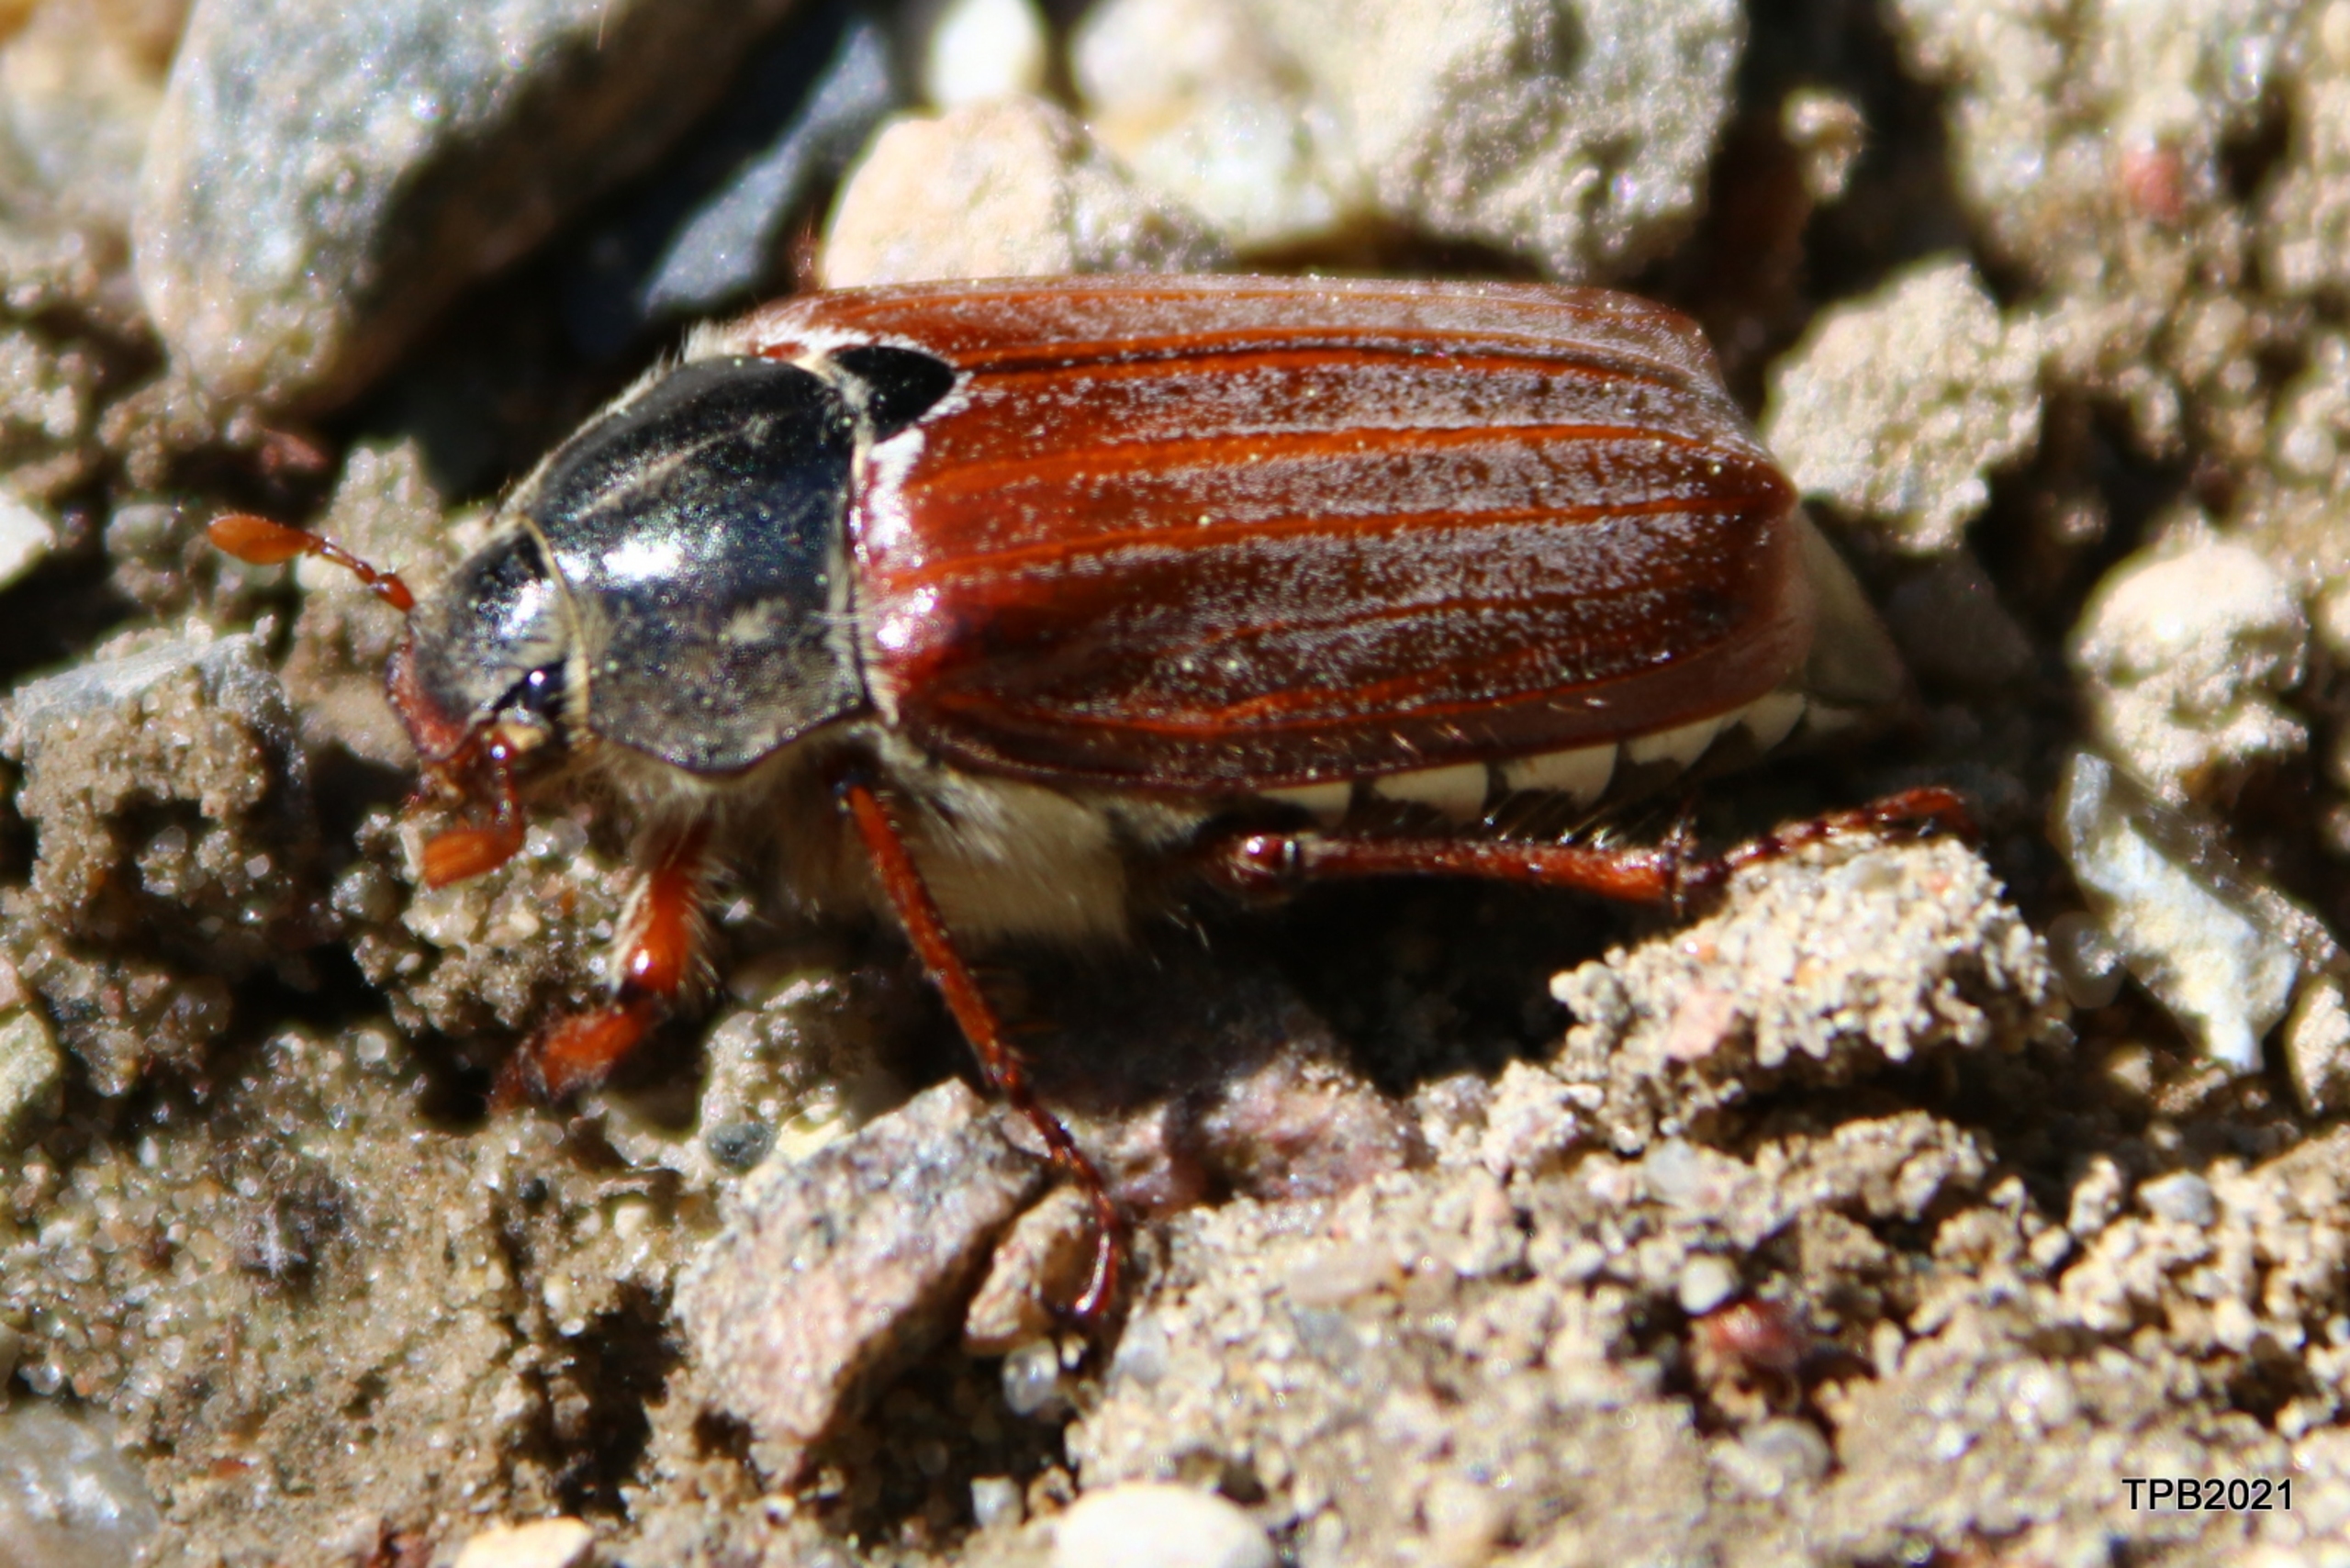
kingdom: Animalia
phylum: Arthropoda
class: Insecta
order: Coleoptera
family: Scarabaeidae
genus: Melolontha
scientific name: Melolontha melolontha
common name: Almindelig oldenborre
